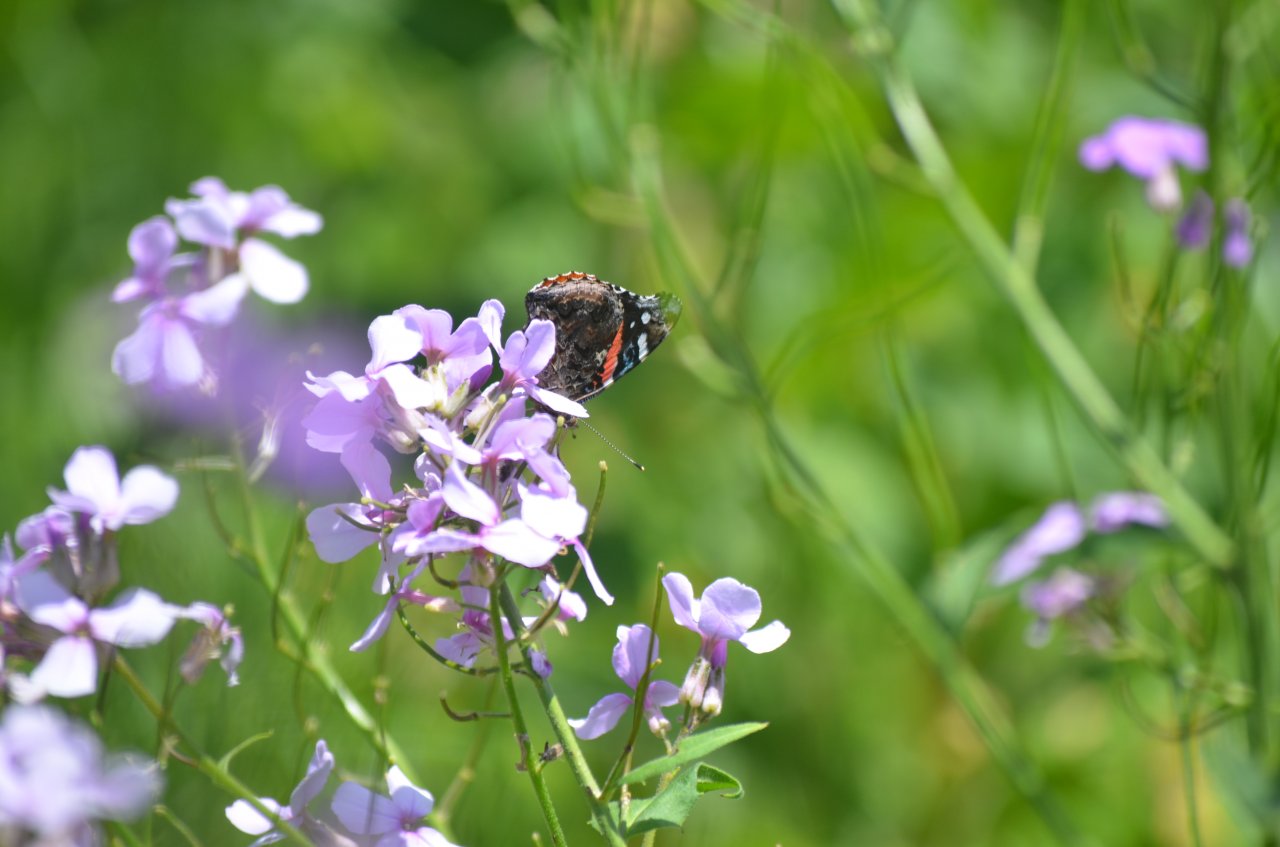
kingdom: Animalia
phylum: Arthropoda
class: Insecta
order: Lepidoptera
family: Nymphalidae
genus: Vanessa
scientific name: Vanessa atalanta
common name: Red Admiral
